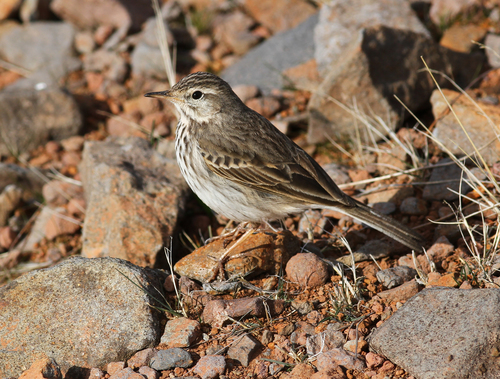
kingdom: Animalia
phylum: Chordata
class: Aves
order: Passeriformes
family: Motacillidae
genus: Anthus
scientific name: Anthus berthelotii
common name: Berthelot's pipit
